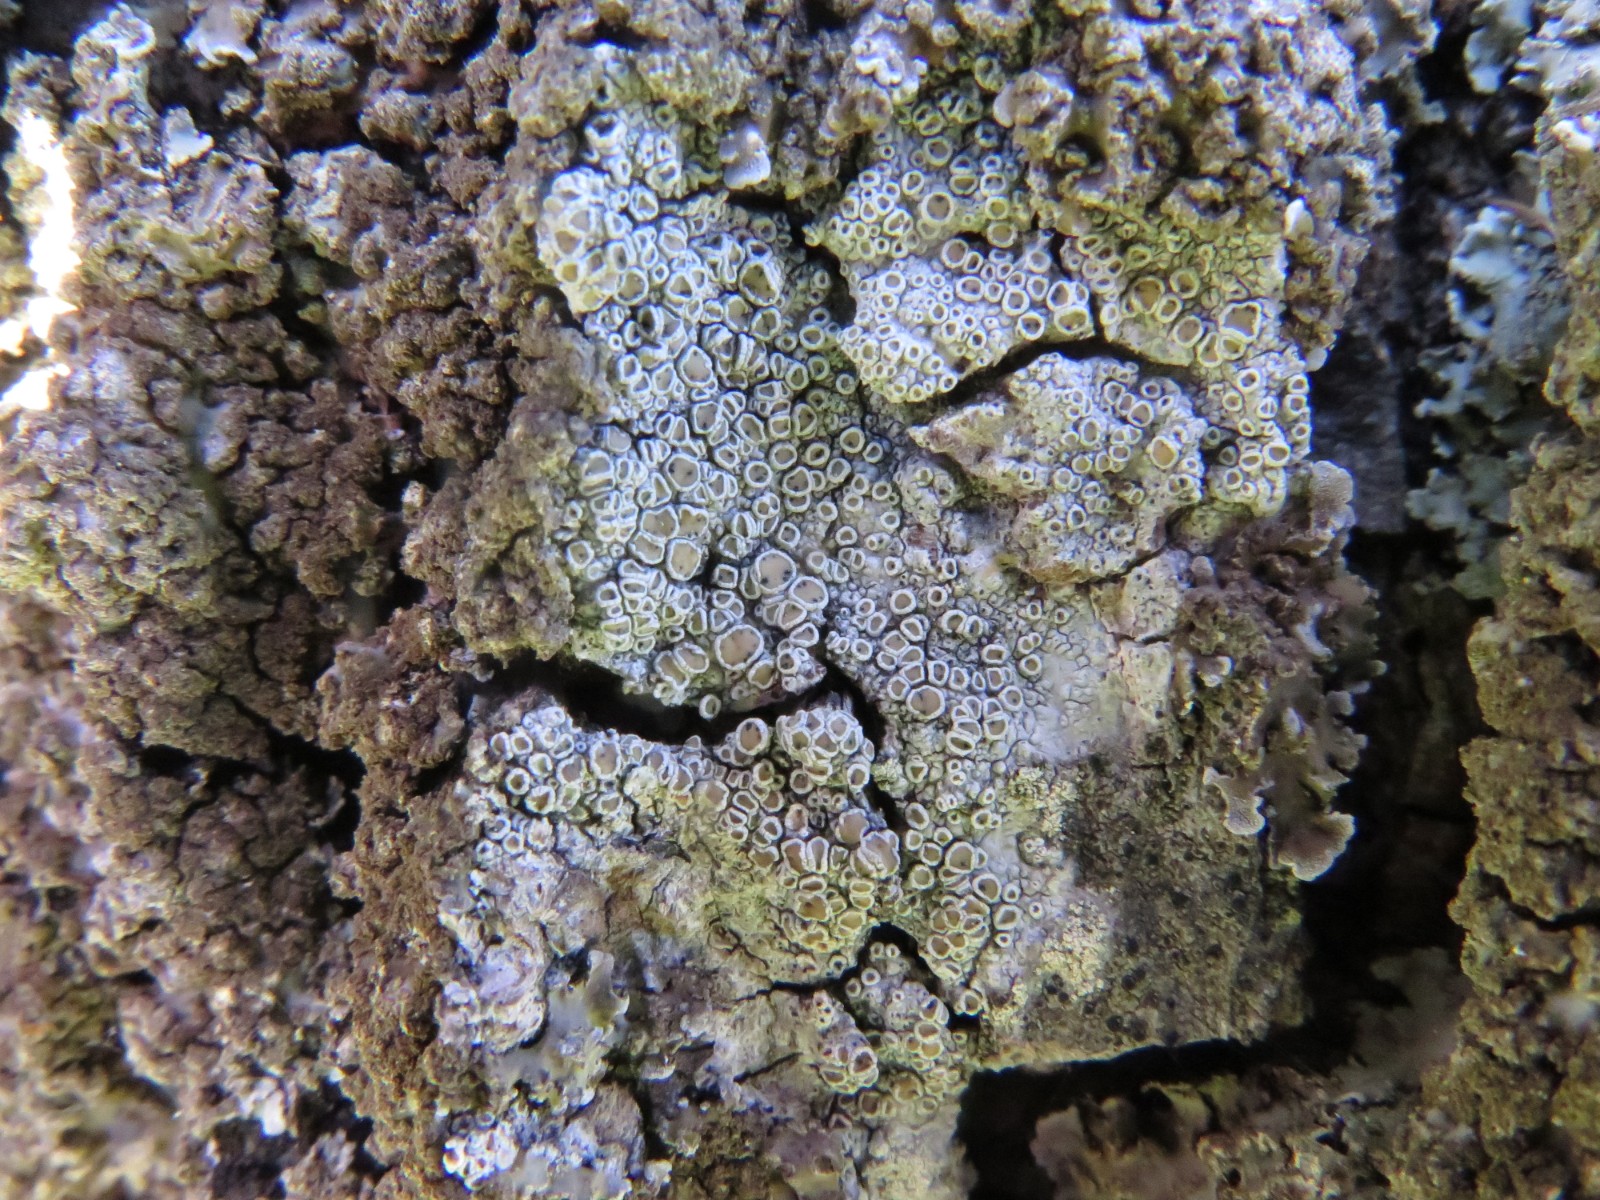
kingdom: Fungi
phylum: Ascomycota
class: Dothideomycetes
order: Pleosporales
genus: Vouauxiella
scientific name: Vouauxiella lichenicola
